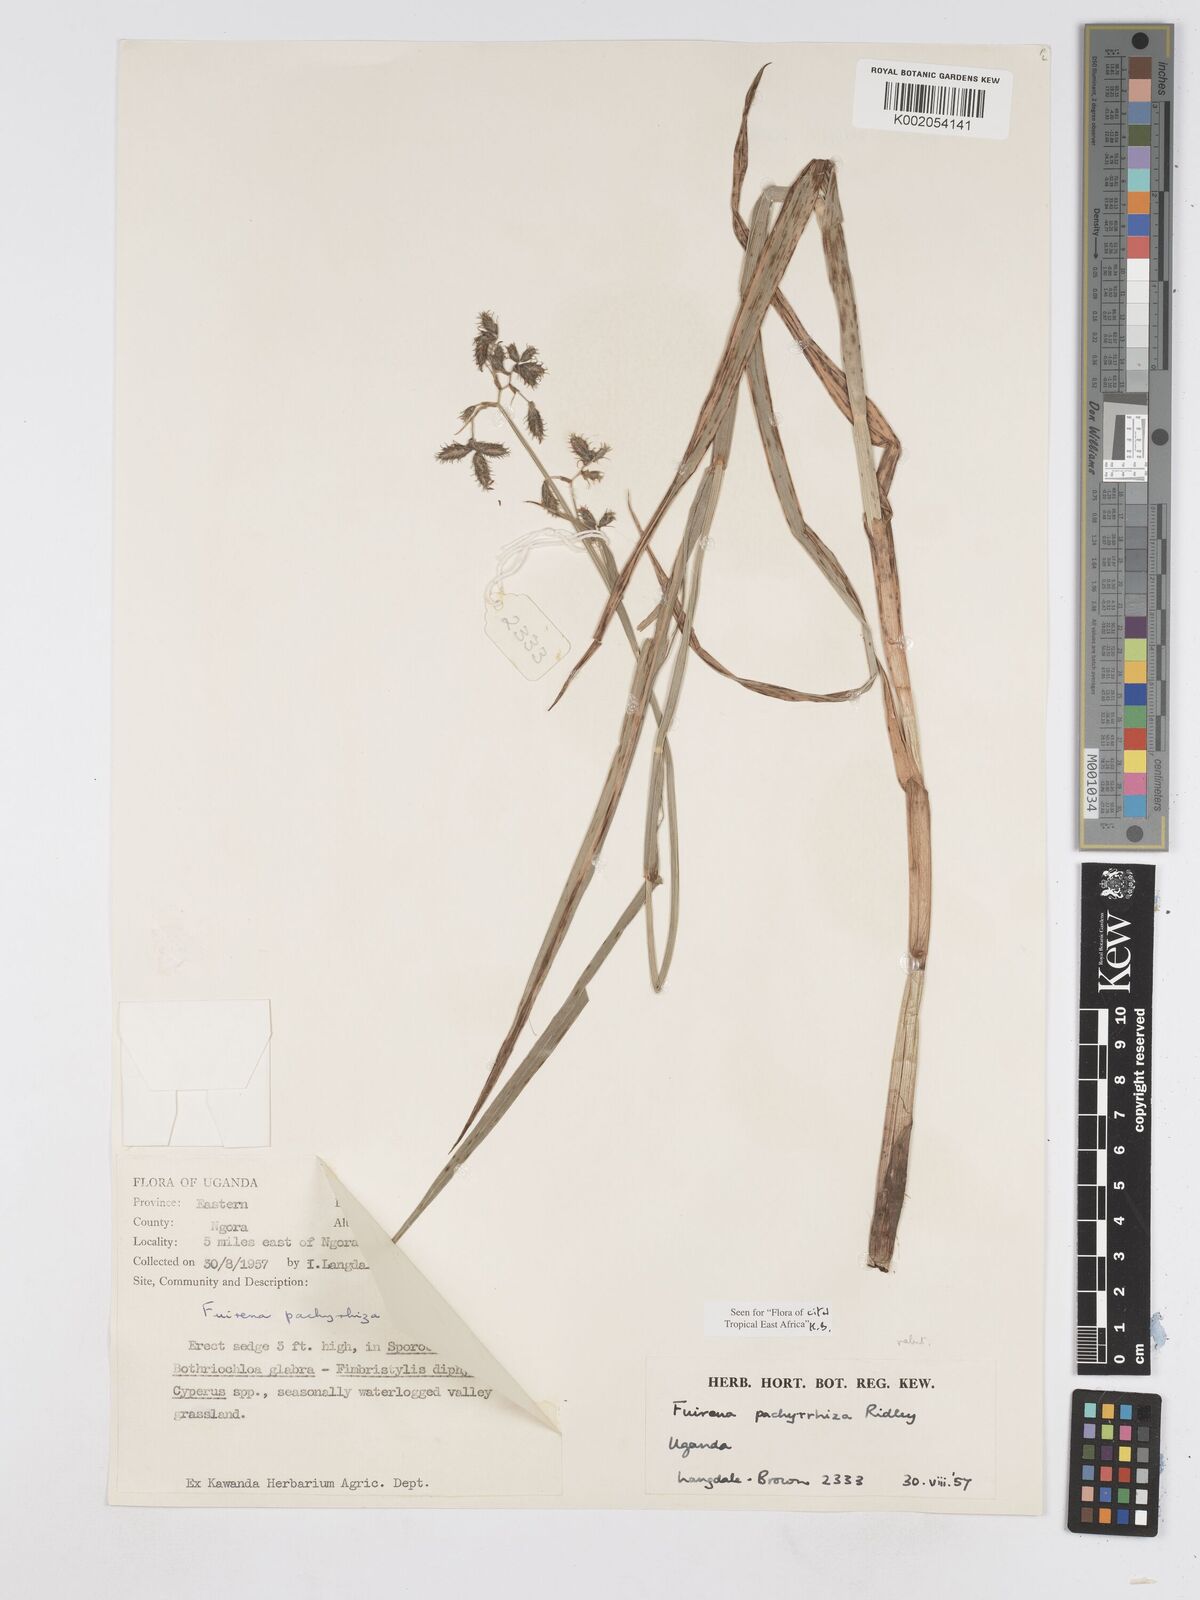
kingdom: Plantae
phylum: Tracheophyta
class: Liliopsida
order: Poales
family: Cyperaceae
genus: Fuirena
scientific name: Fuirena pachyrrhiza
